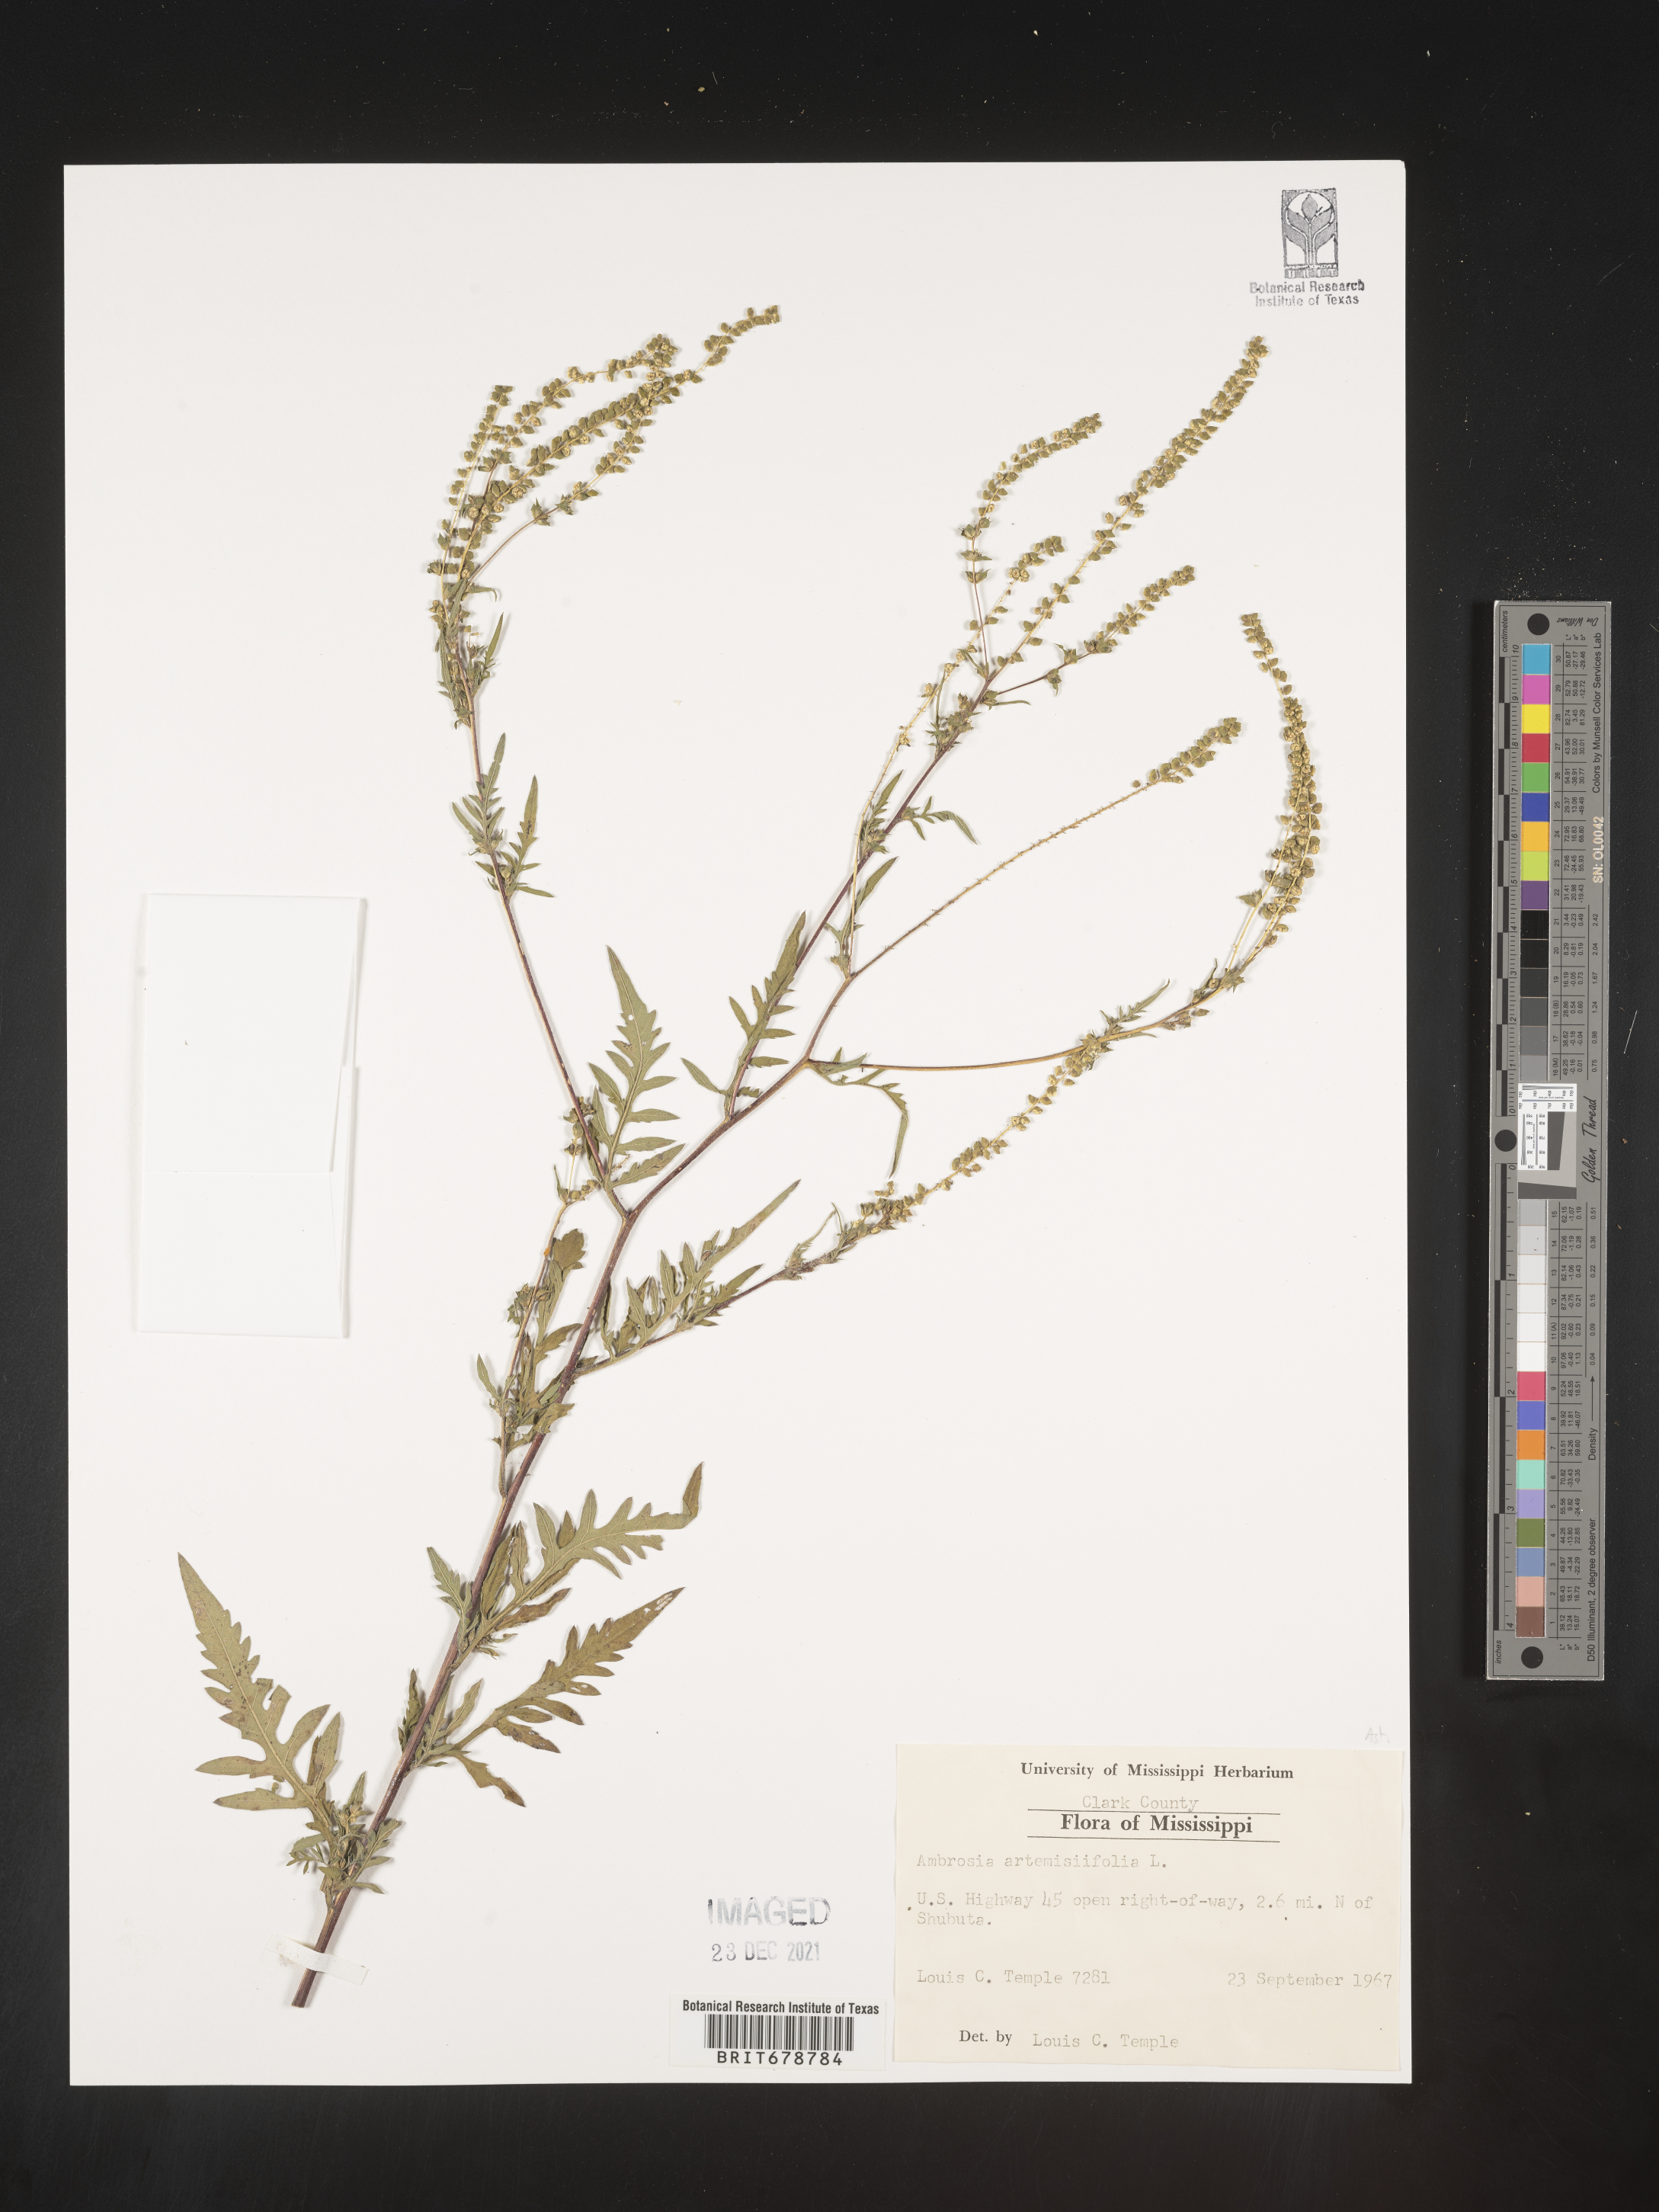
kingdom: Plantae
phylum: Tracheophyta
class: Magnoliopsida
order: Asterales
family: Asteraceae
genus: Ambrosia
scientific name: Ambrosia artemisiifolia
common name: Annual ragweed
